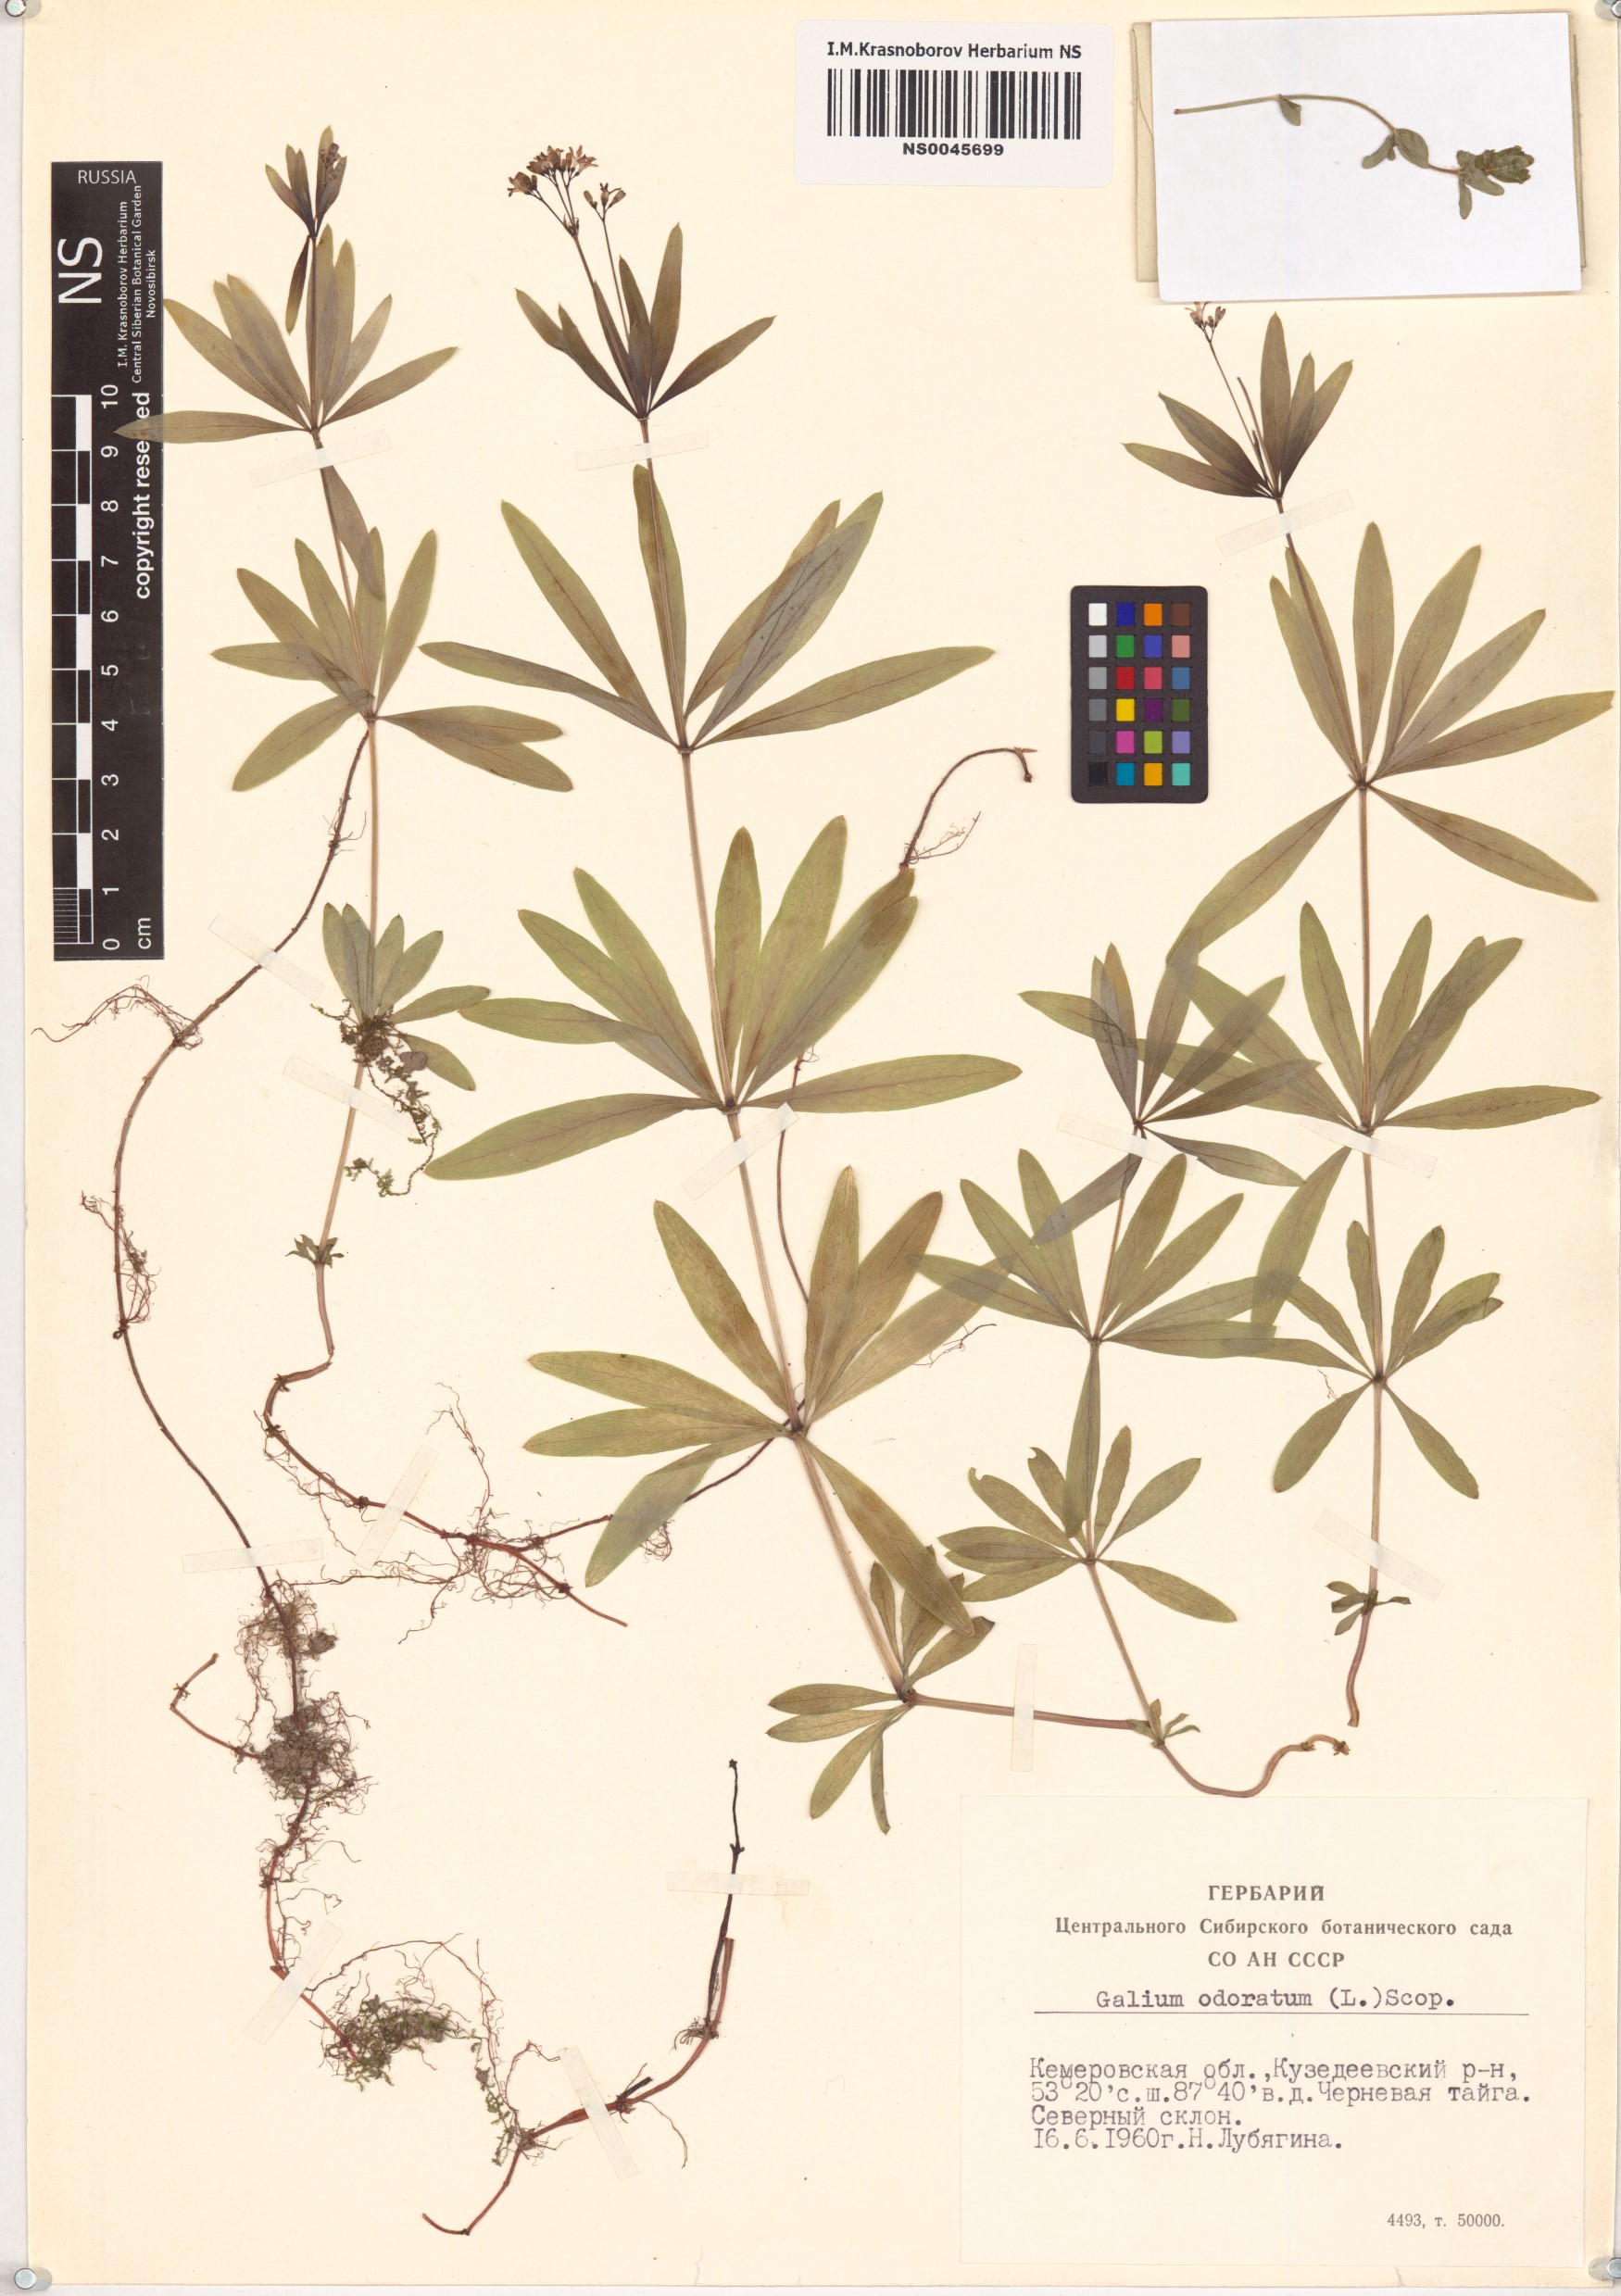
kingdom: Plantae
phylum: Tracheophyta
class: Magnoliopsida
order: Gentianales
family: Rubiaceae
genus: Galium
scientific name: Galium odoratum
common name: Sweet woodruff
